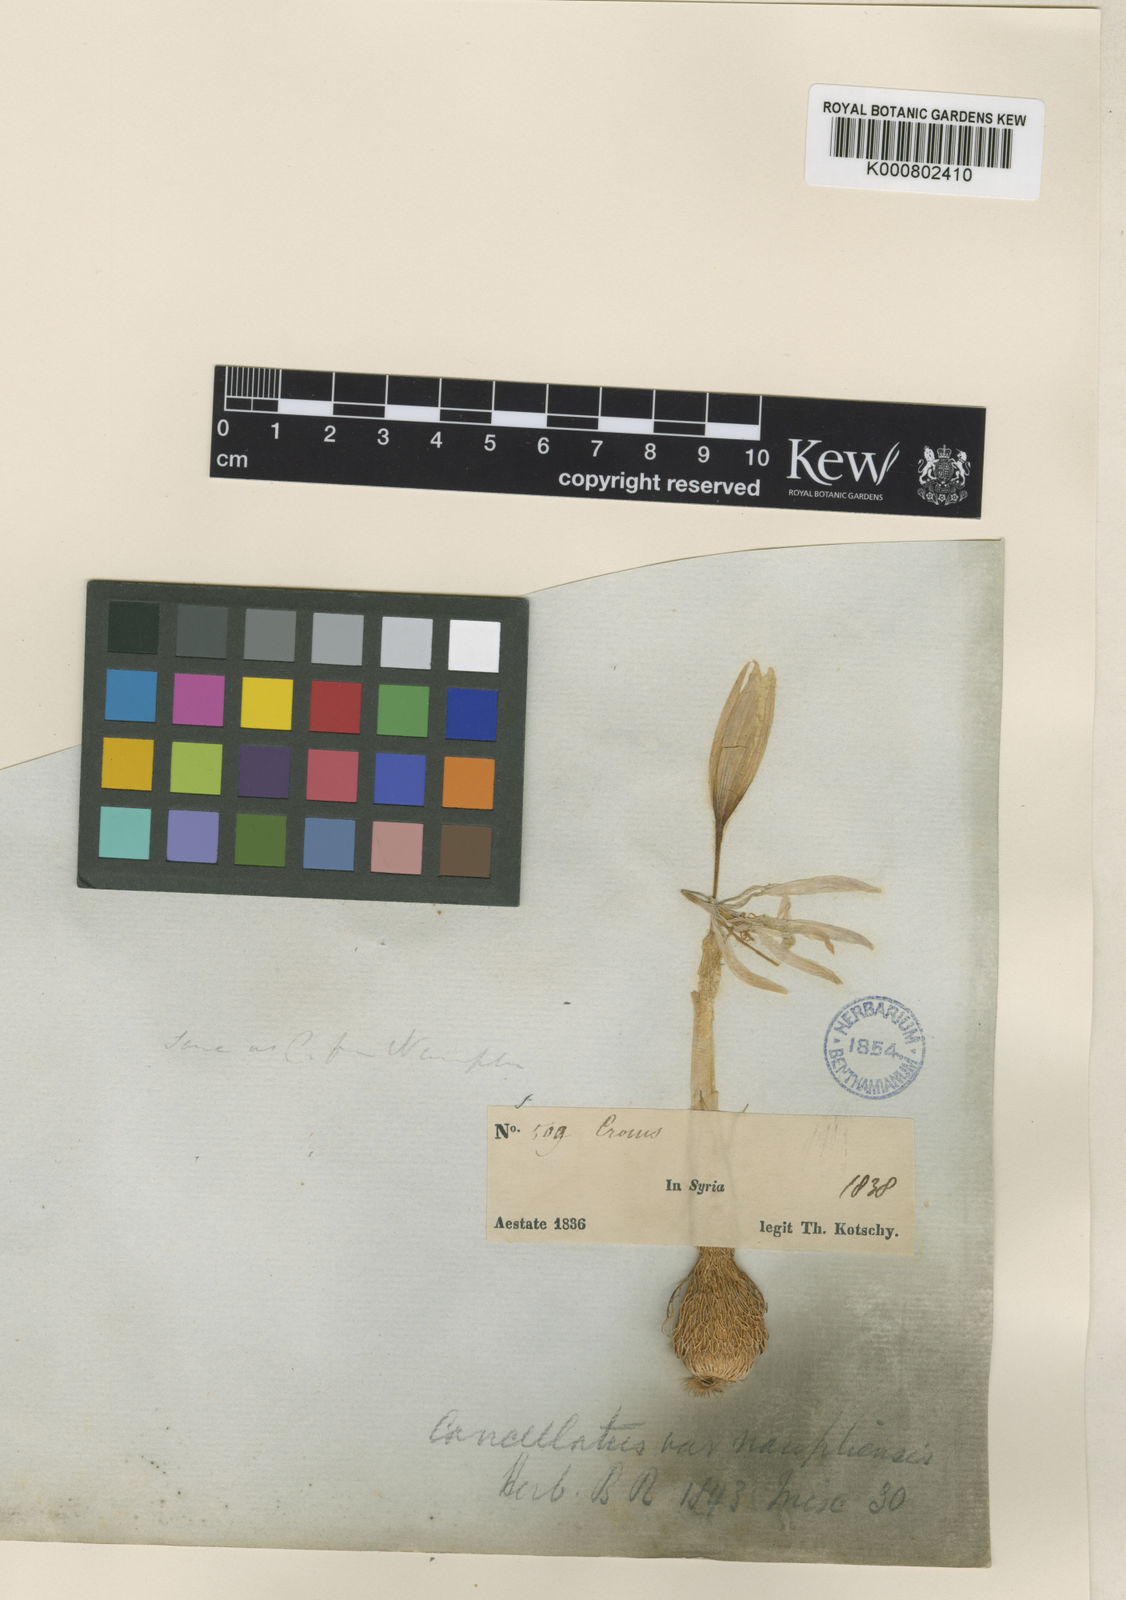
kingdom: Plantae
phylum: Tracheophyta
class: Liliopsida
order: Asparagales
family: Iridaceae
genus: Crocus
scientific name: Crocus cancellatus
